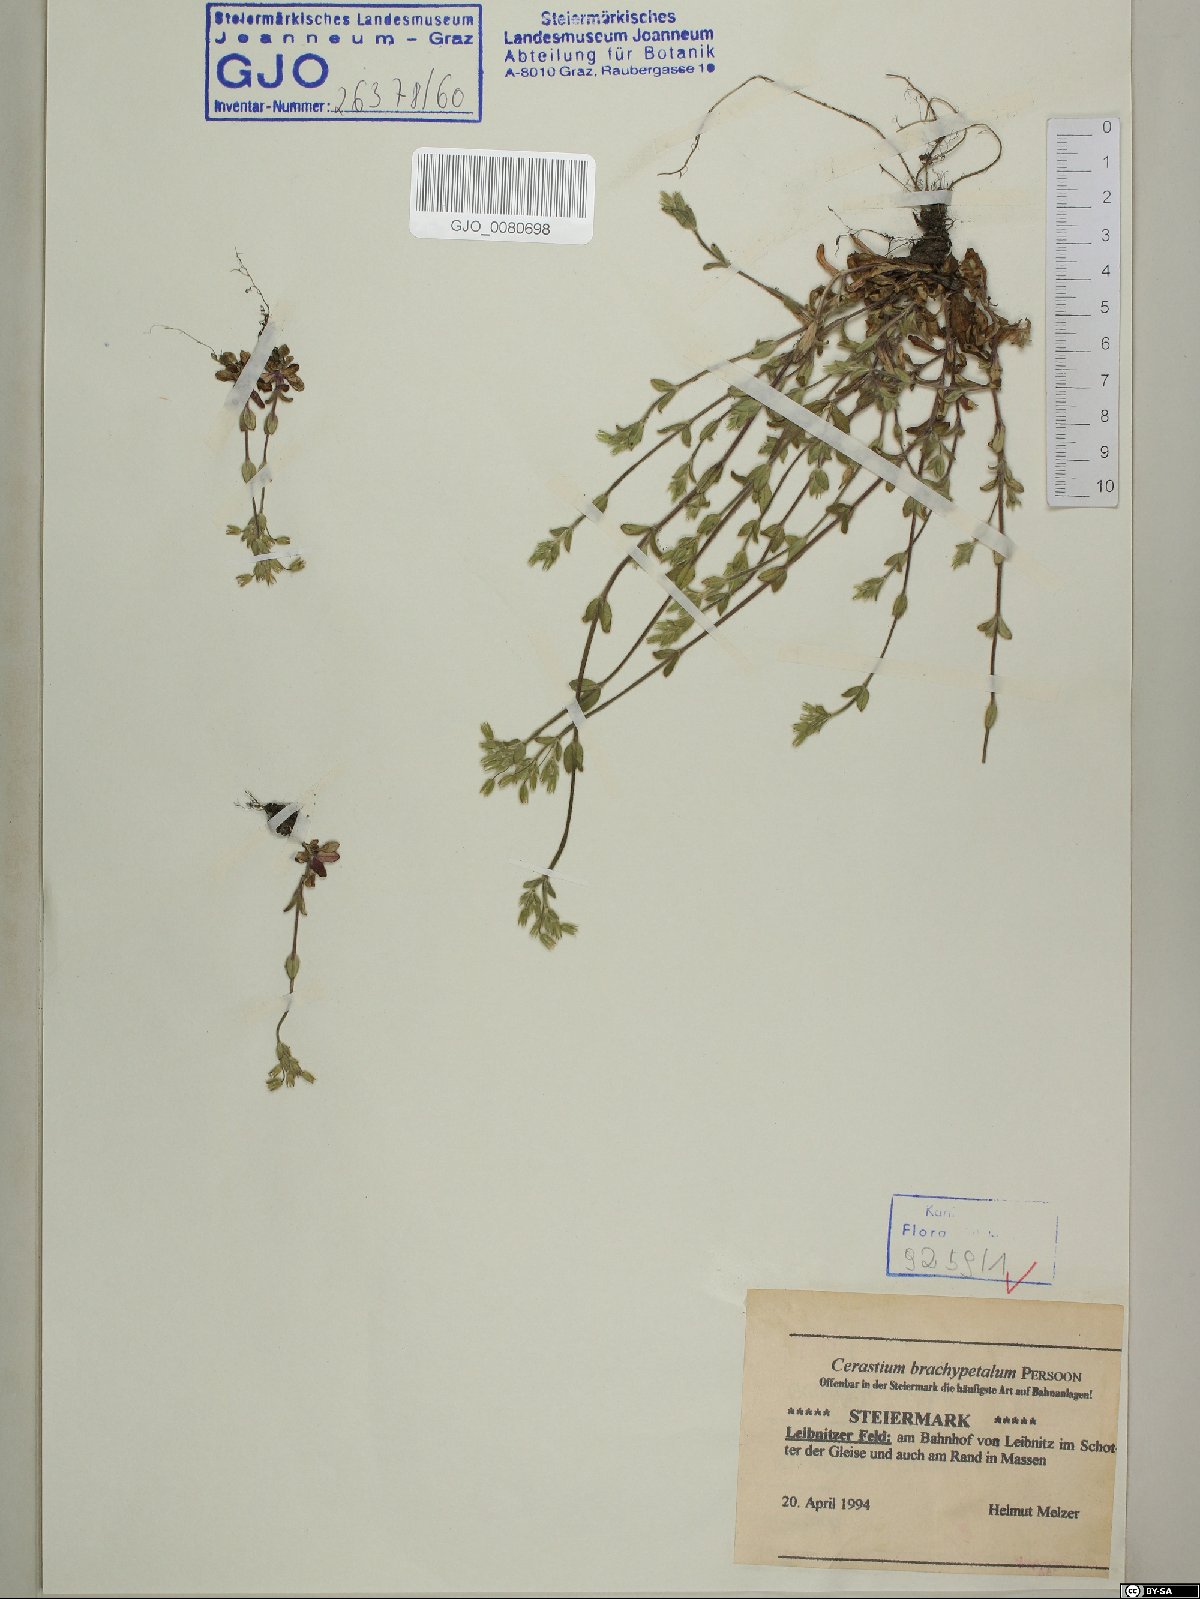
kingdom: Plantae
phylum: Tracheophyta
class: Magnoliopsida
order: Caryophyllales
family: Caryophyllaceae
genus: Cerastium
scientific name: Cerastium brachypetalum
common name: Grey mouse-ear
